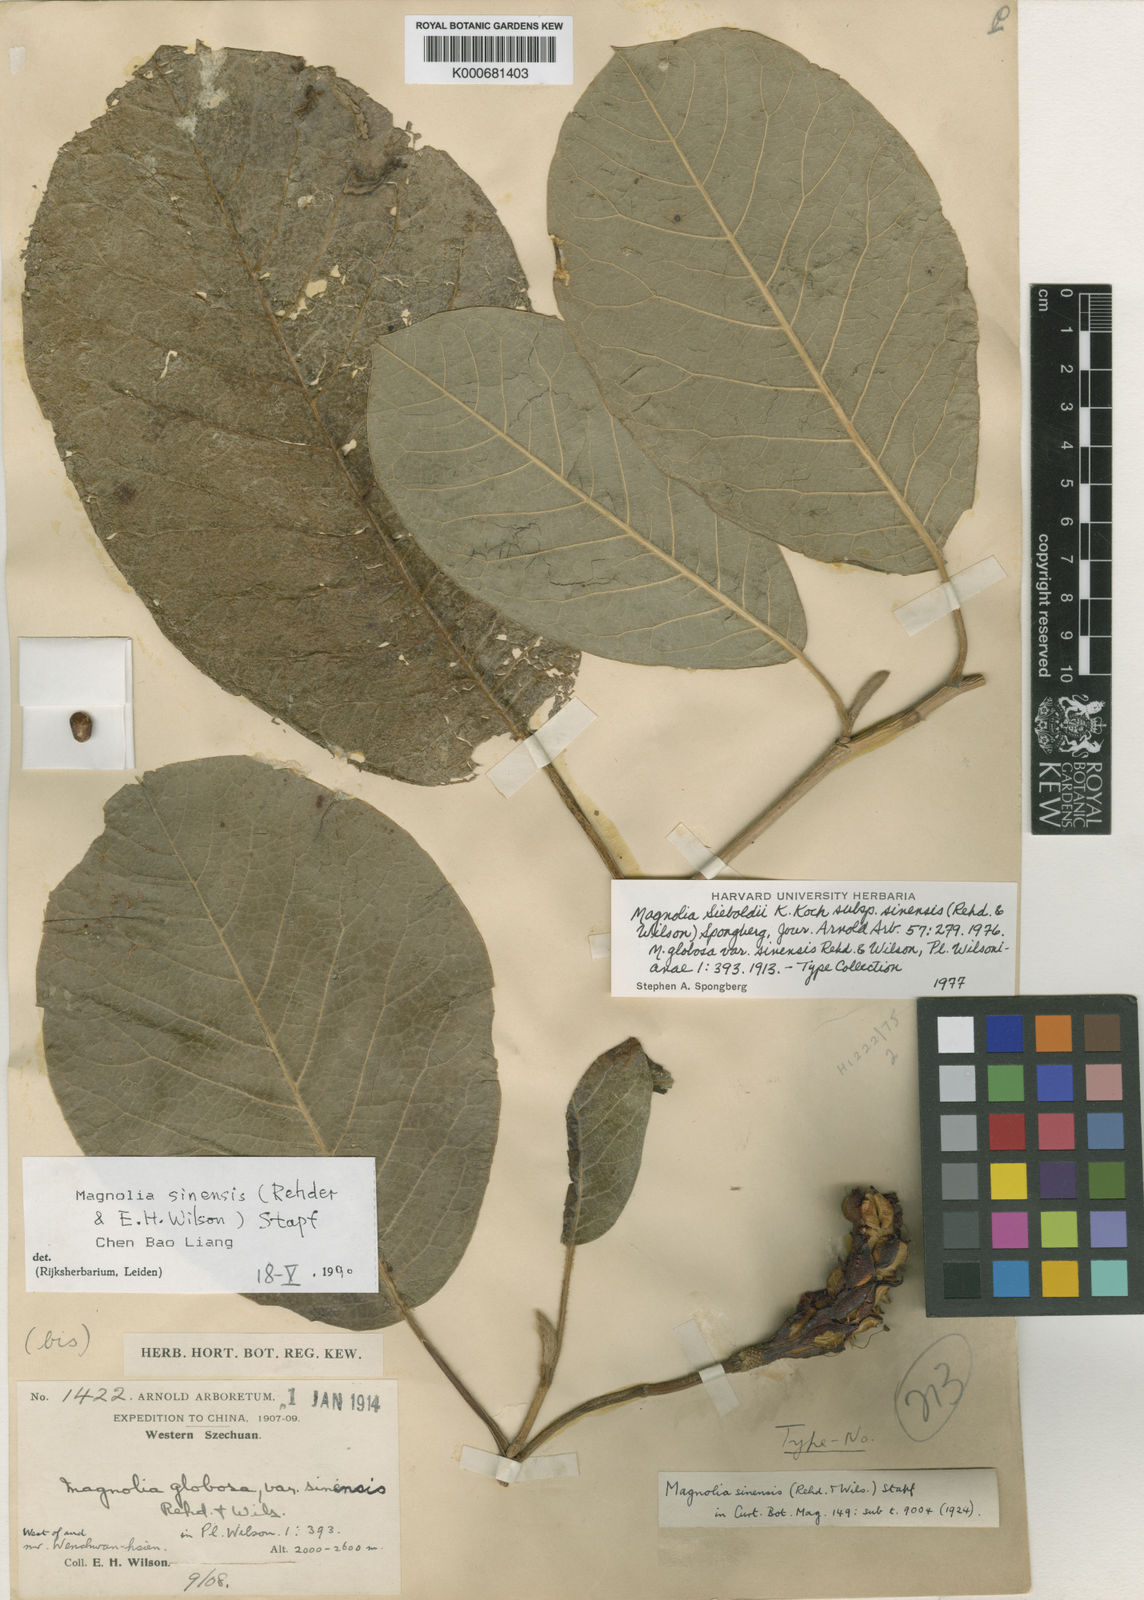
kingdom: Plantae
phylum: Tracheophyta
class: Magnoliopsida
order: Magnoliales
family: Magnoliaceae
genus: Magnolia
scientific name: Magnolia sieboldii
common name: Oyama magnolia
